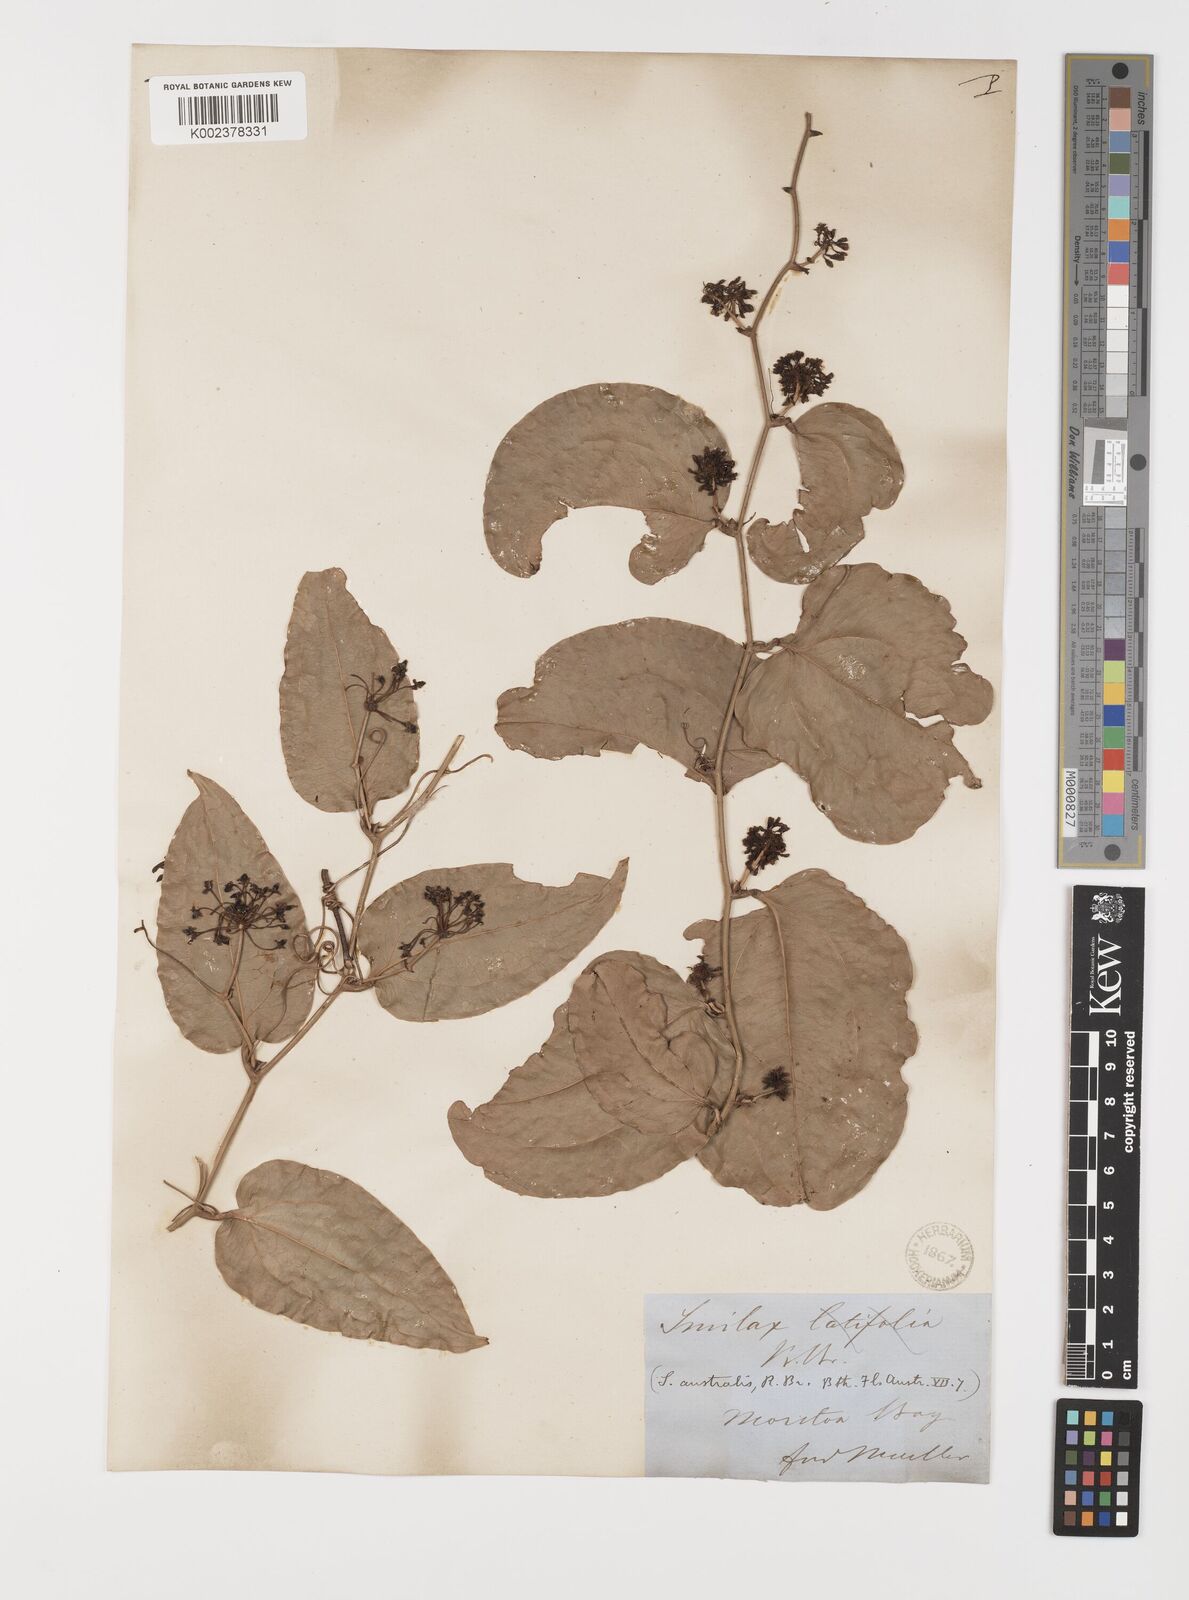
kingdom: Plantae
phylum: Tracheophyta
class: Liliopsida
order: Liliales
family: Smilacaceae
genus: Smilax
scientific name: Smilax australis
